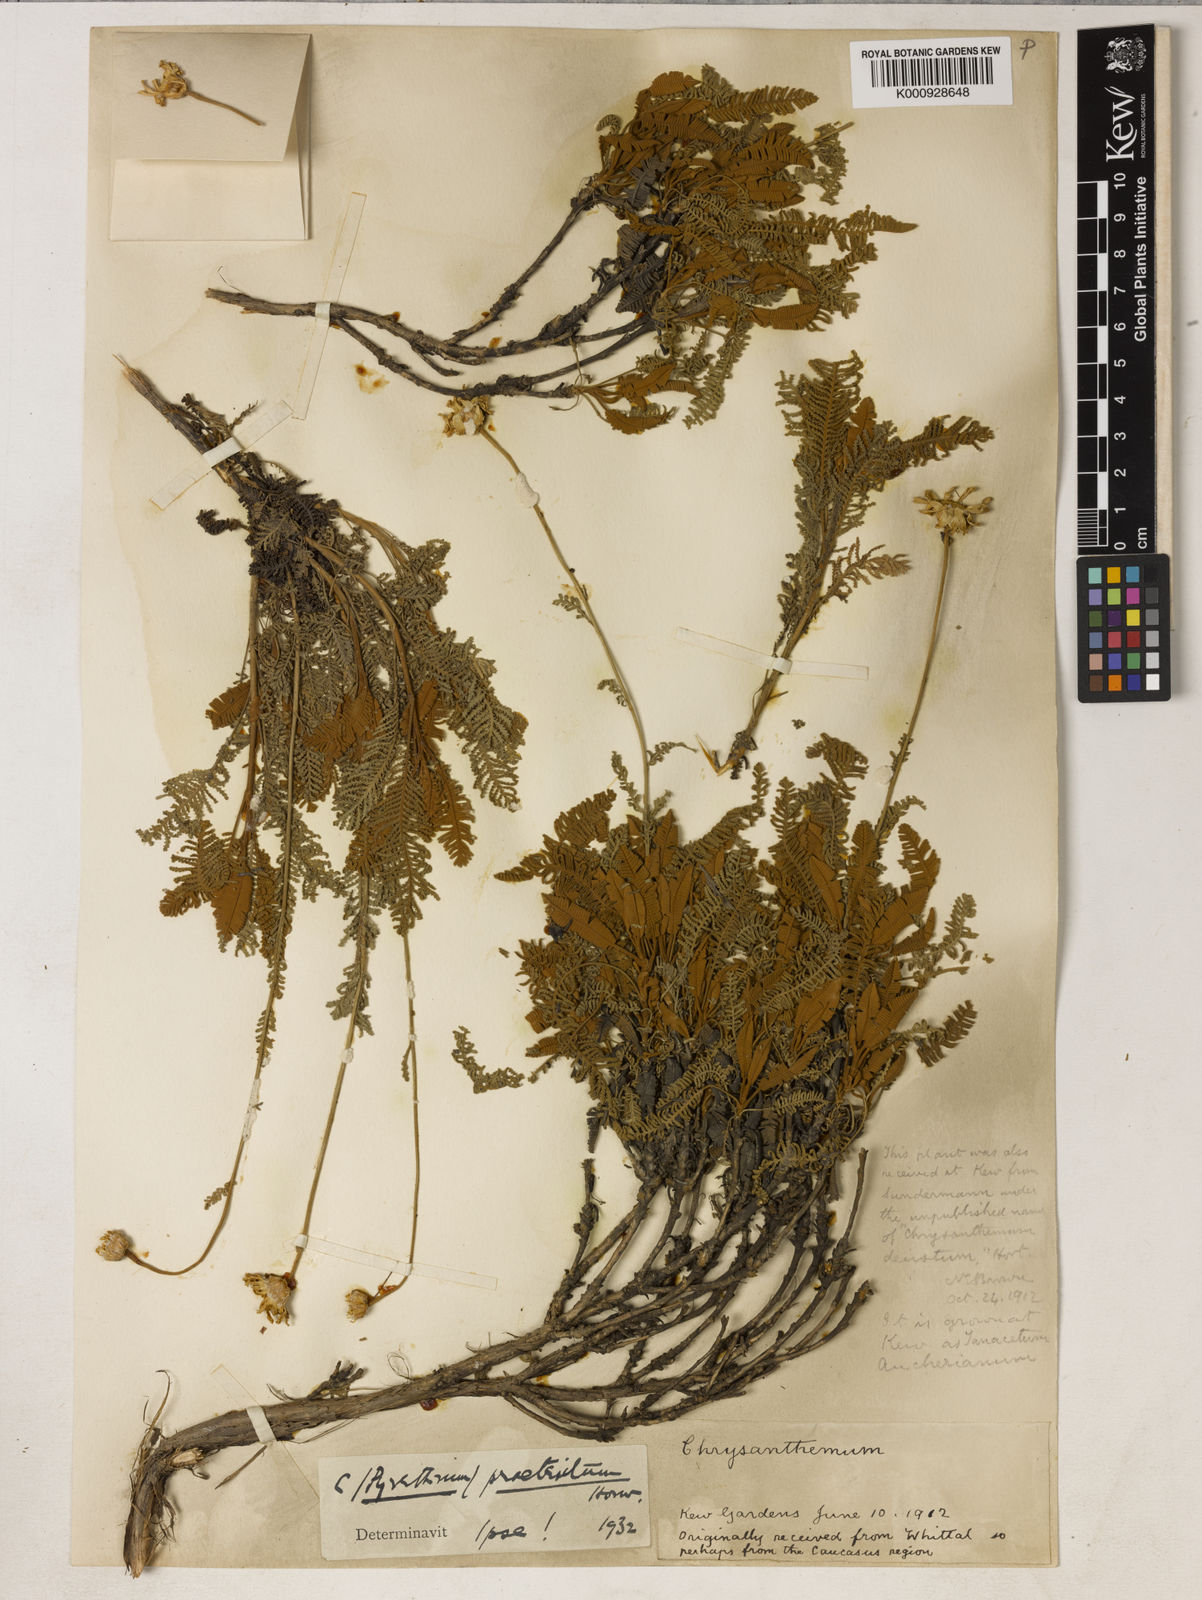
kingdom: Plantae
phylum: Tracheophyta
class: Magnoliopsida
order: Asterales
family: Asteraceae
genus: Tanacetum
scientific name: Tanacetum praeteritum
